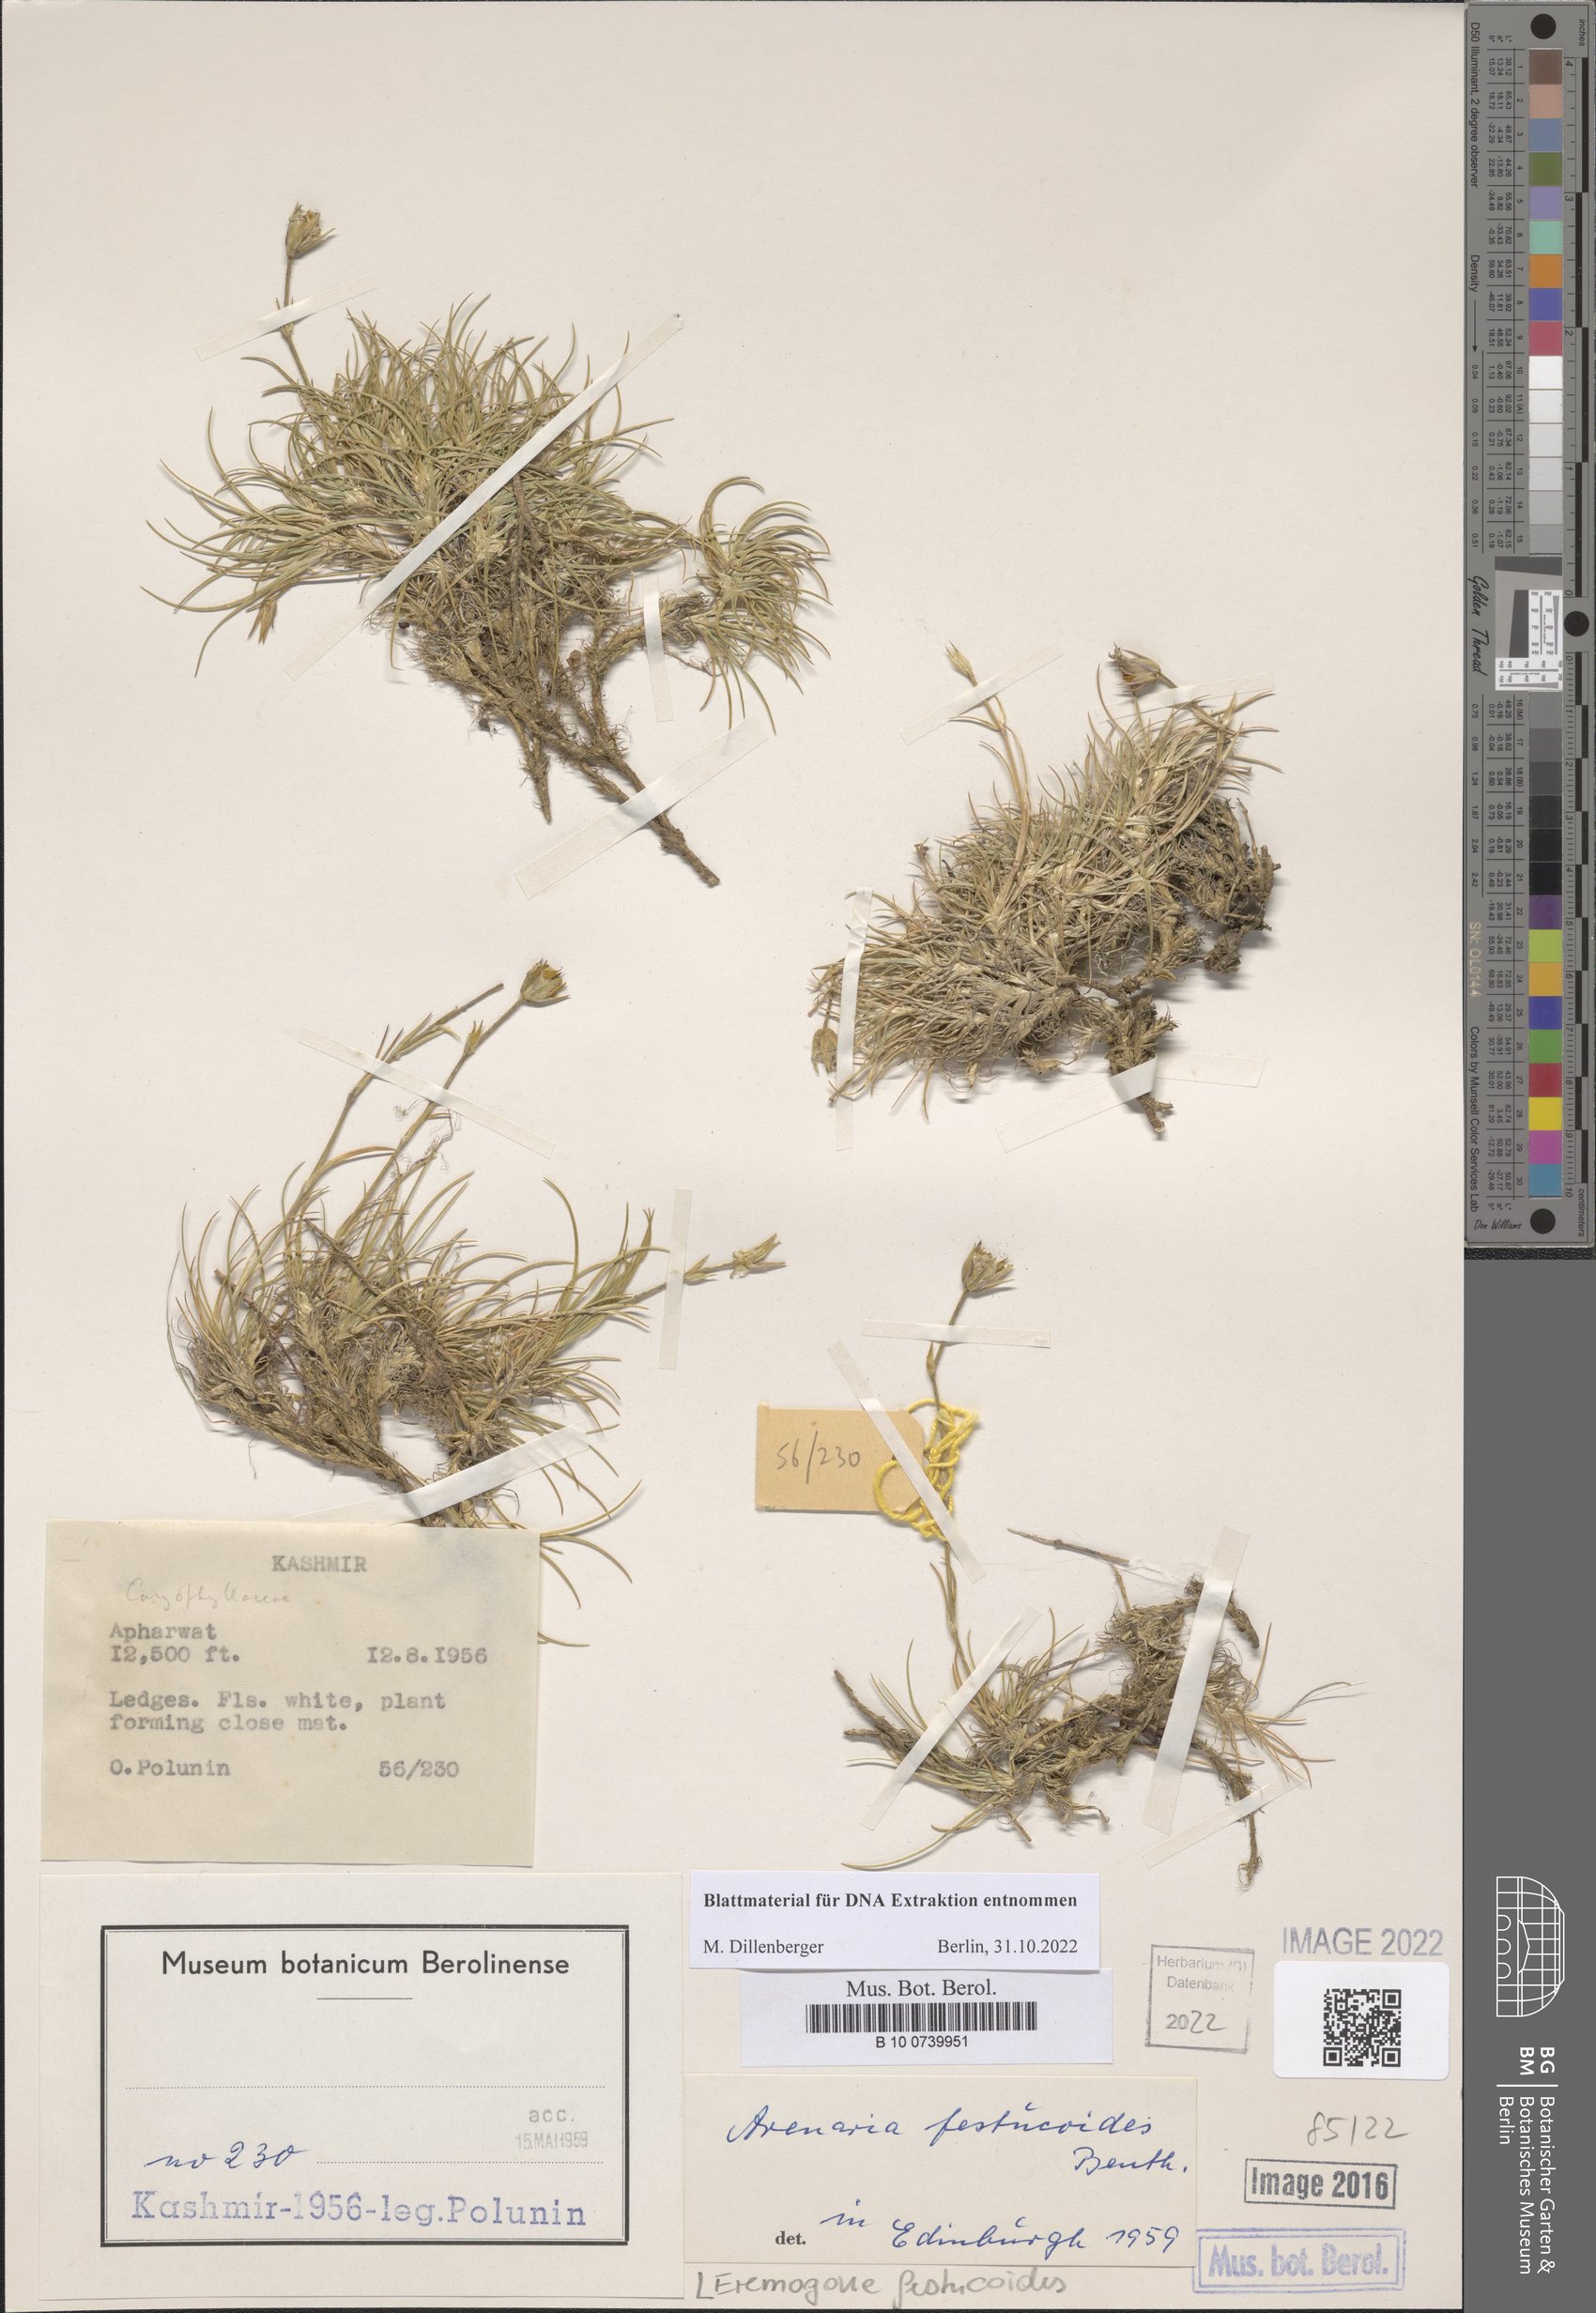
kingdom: Plantae
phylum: Tracheophyta
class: Magnoliopsida
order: Caryophyllales
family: Caryophyllaceae
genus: Eremogone
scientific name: Eremogone festucoides
